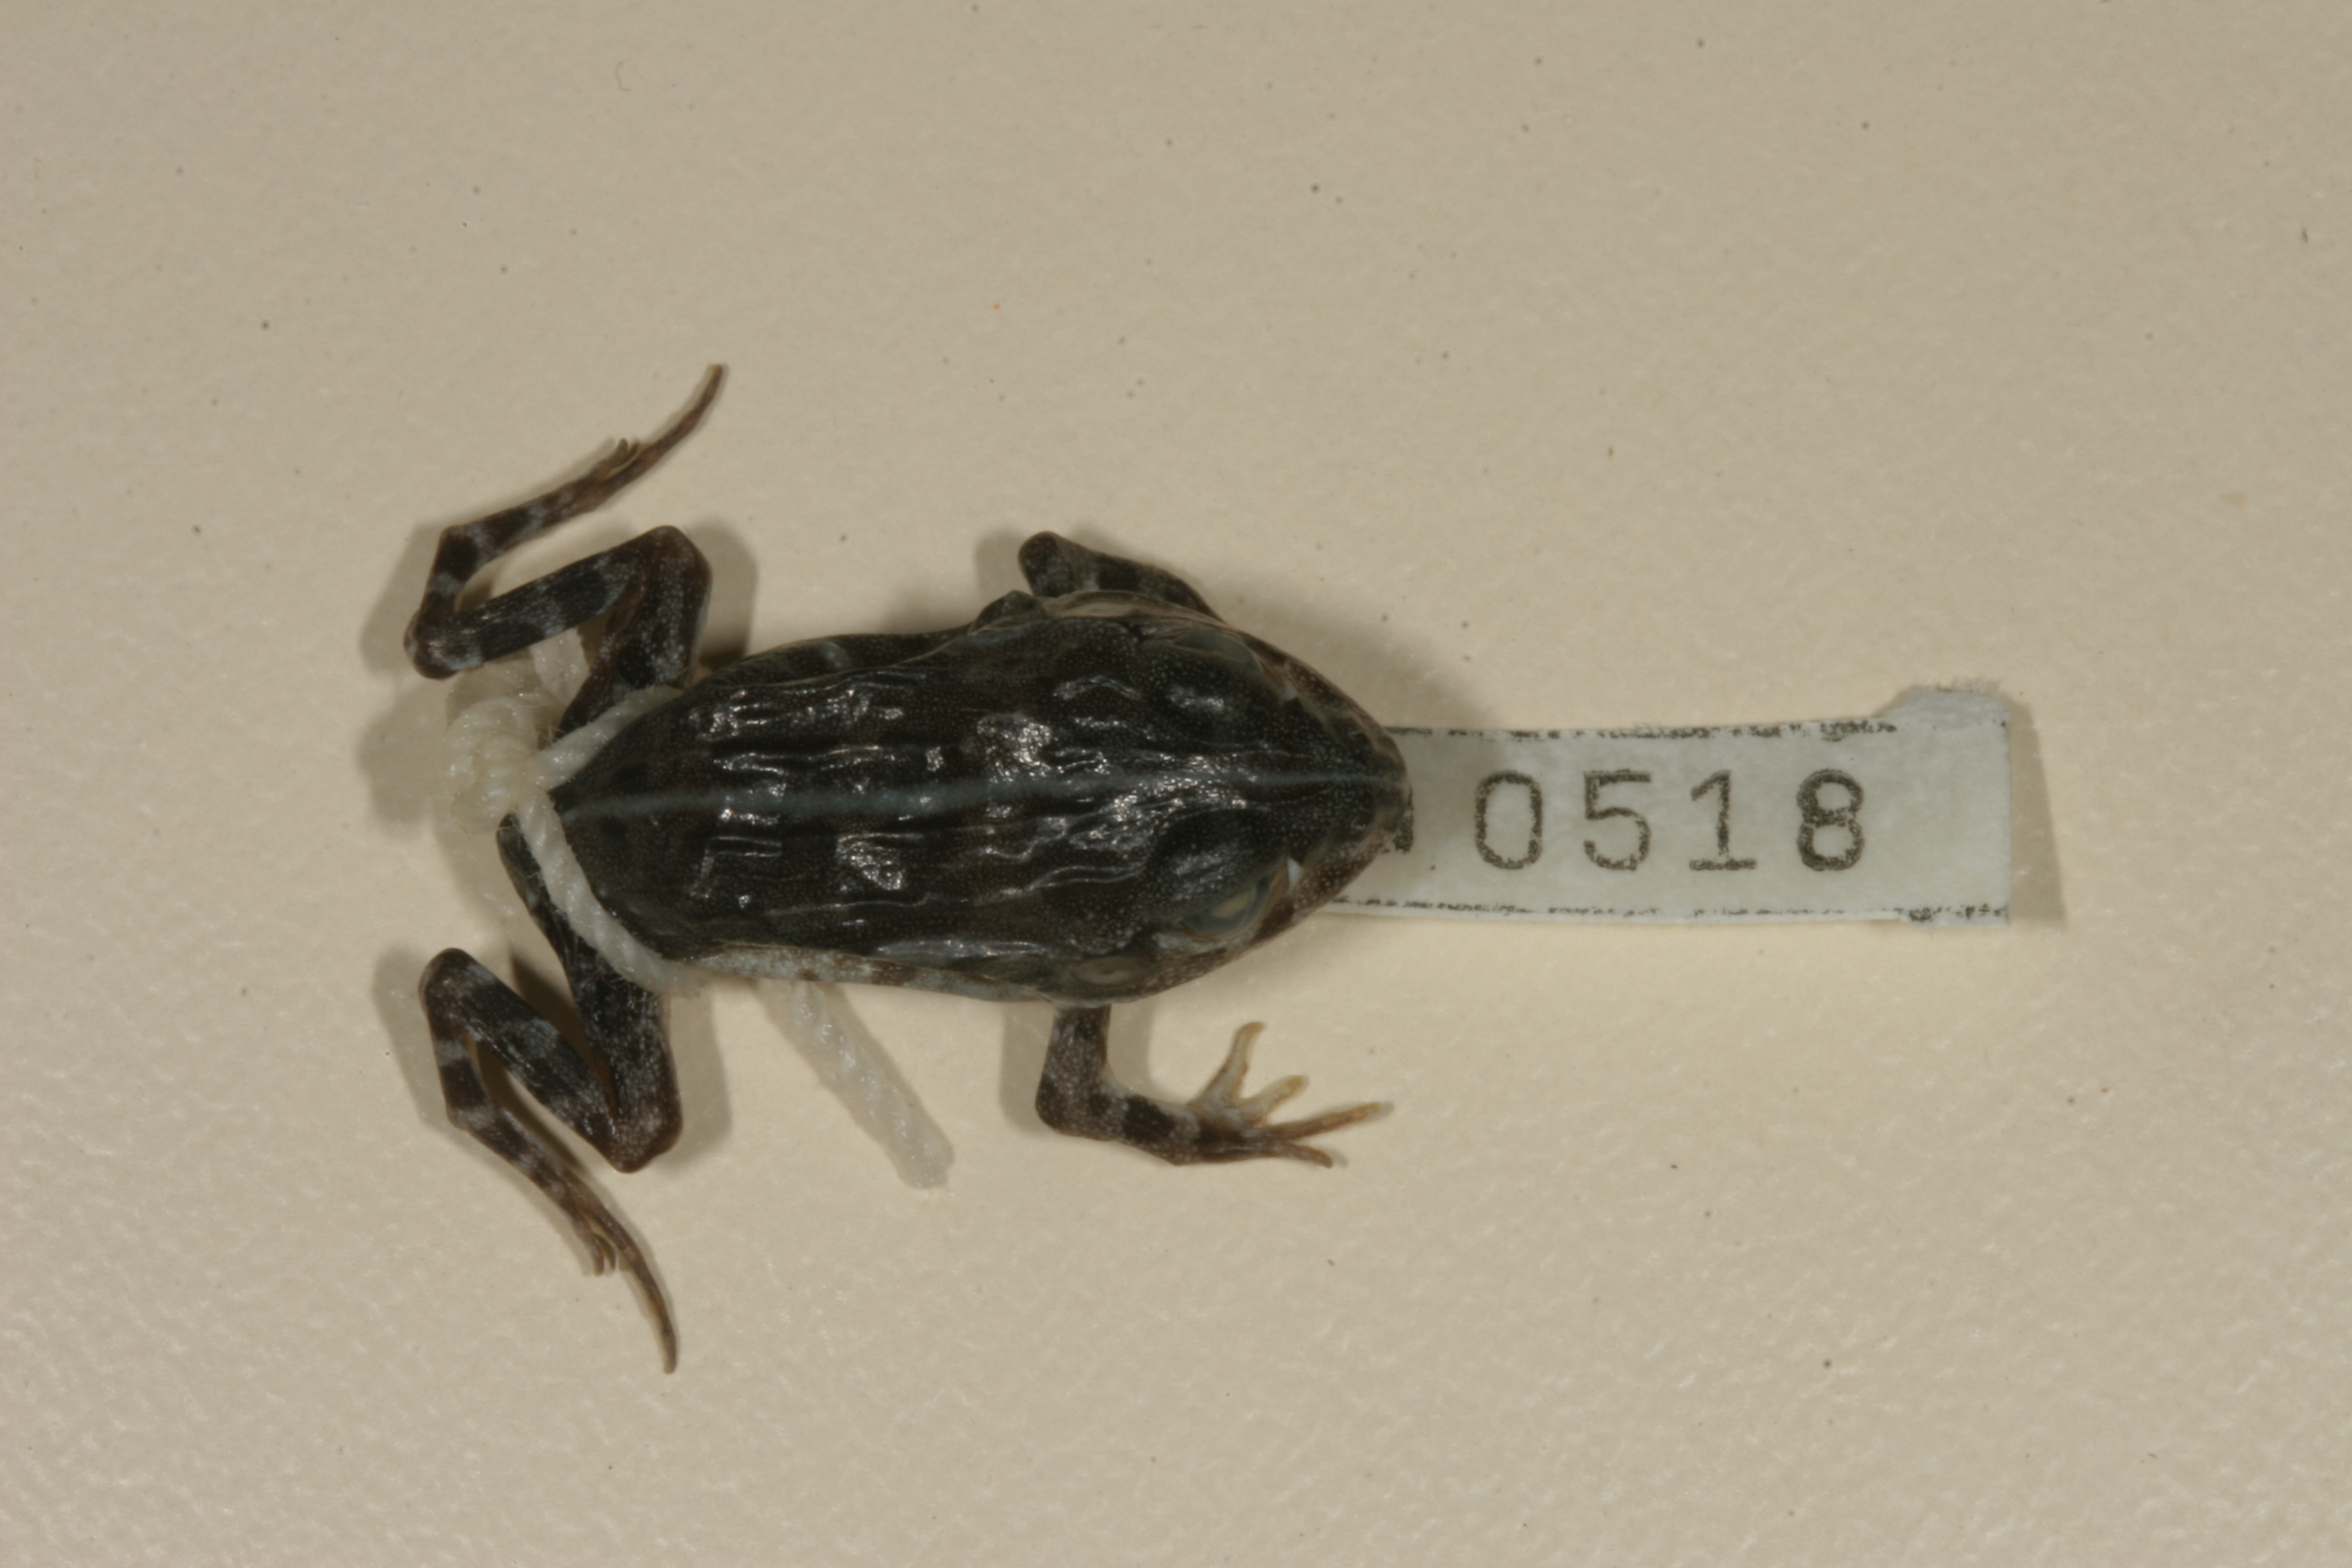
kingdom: Animalia
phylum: Chordata
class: Amphibia
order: Anura
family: Pyxicephalidae
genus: Pyxicephalus
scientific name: Pyxicephalus edulis
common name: Peter's bullfrog
